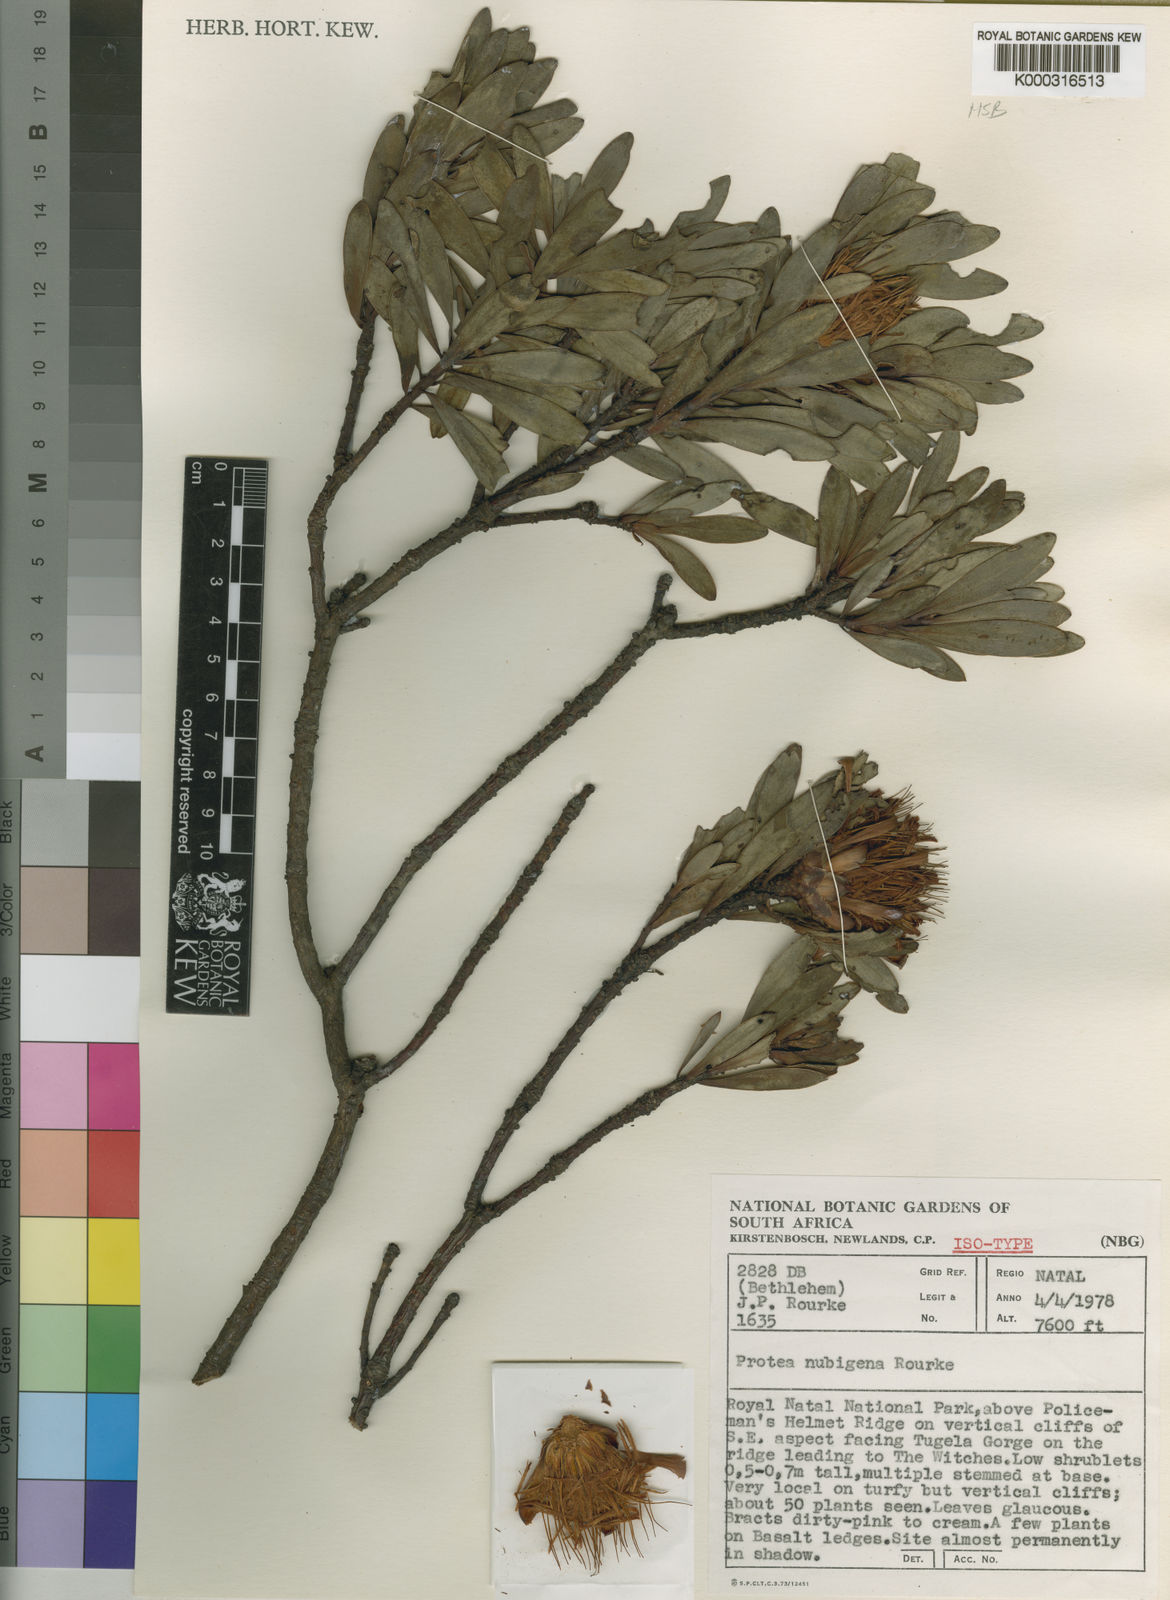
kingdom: Plantae
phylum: Tracheophyta
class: Magnoliopsida
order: Proteales
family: Proteaceae
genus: Protea
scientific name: Protea nubigena
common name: Cloud sugarbush
